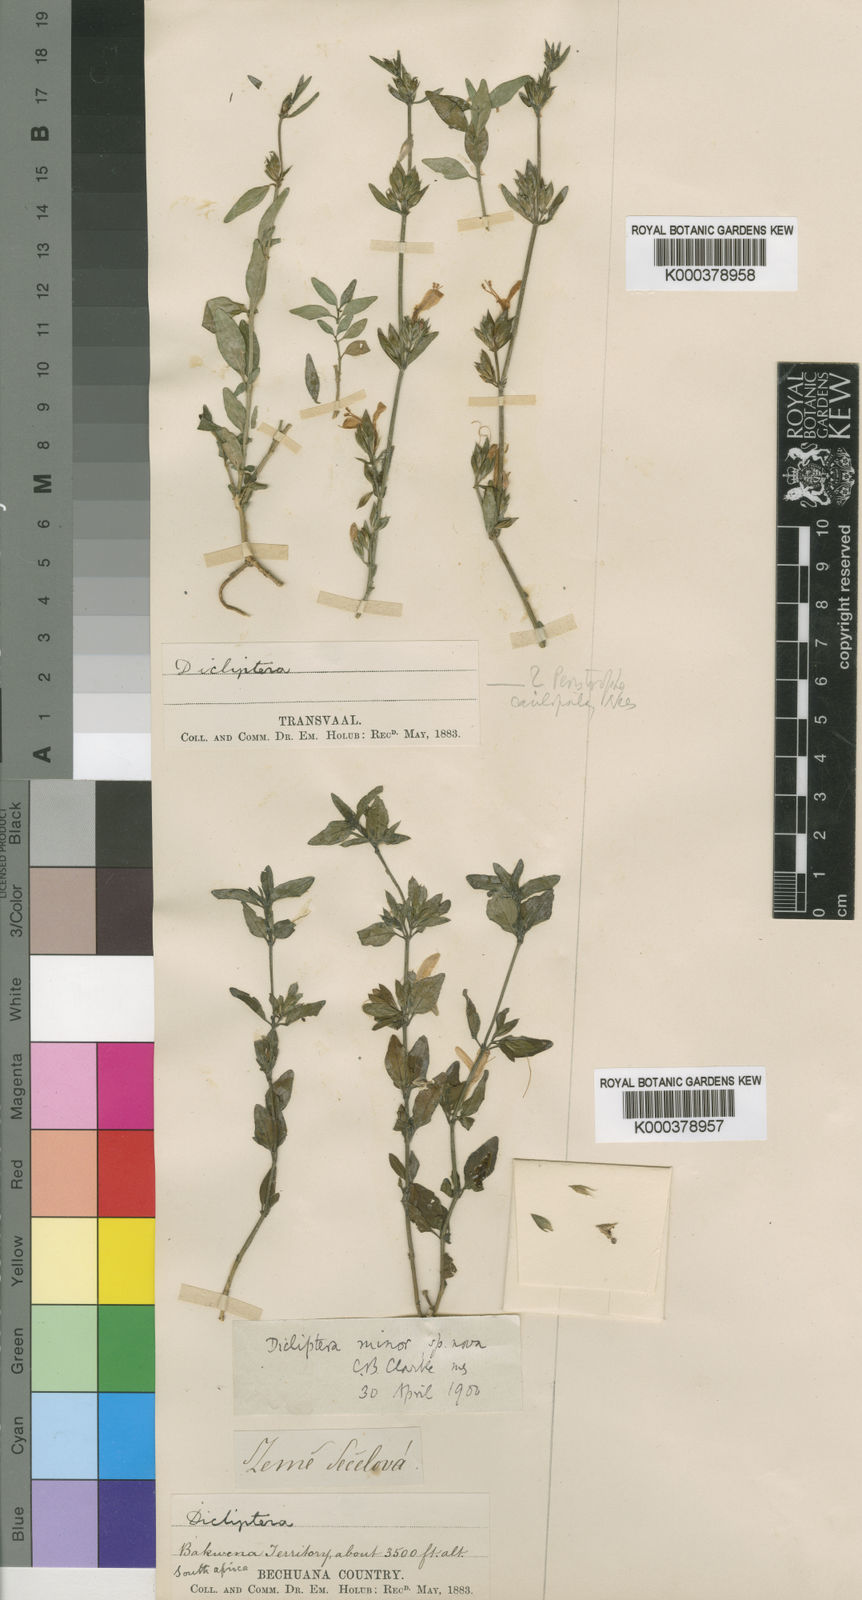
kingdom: Plantae
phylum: Tracheophyta
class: Magnoliopsida
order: Lamiales
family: Acanthaceae
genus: Dicliptera
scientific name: Dicliptera minor
